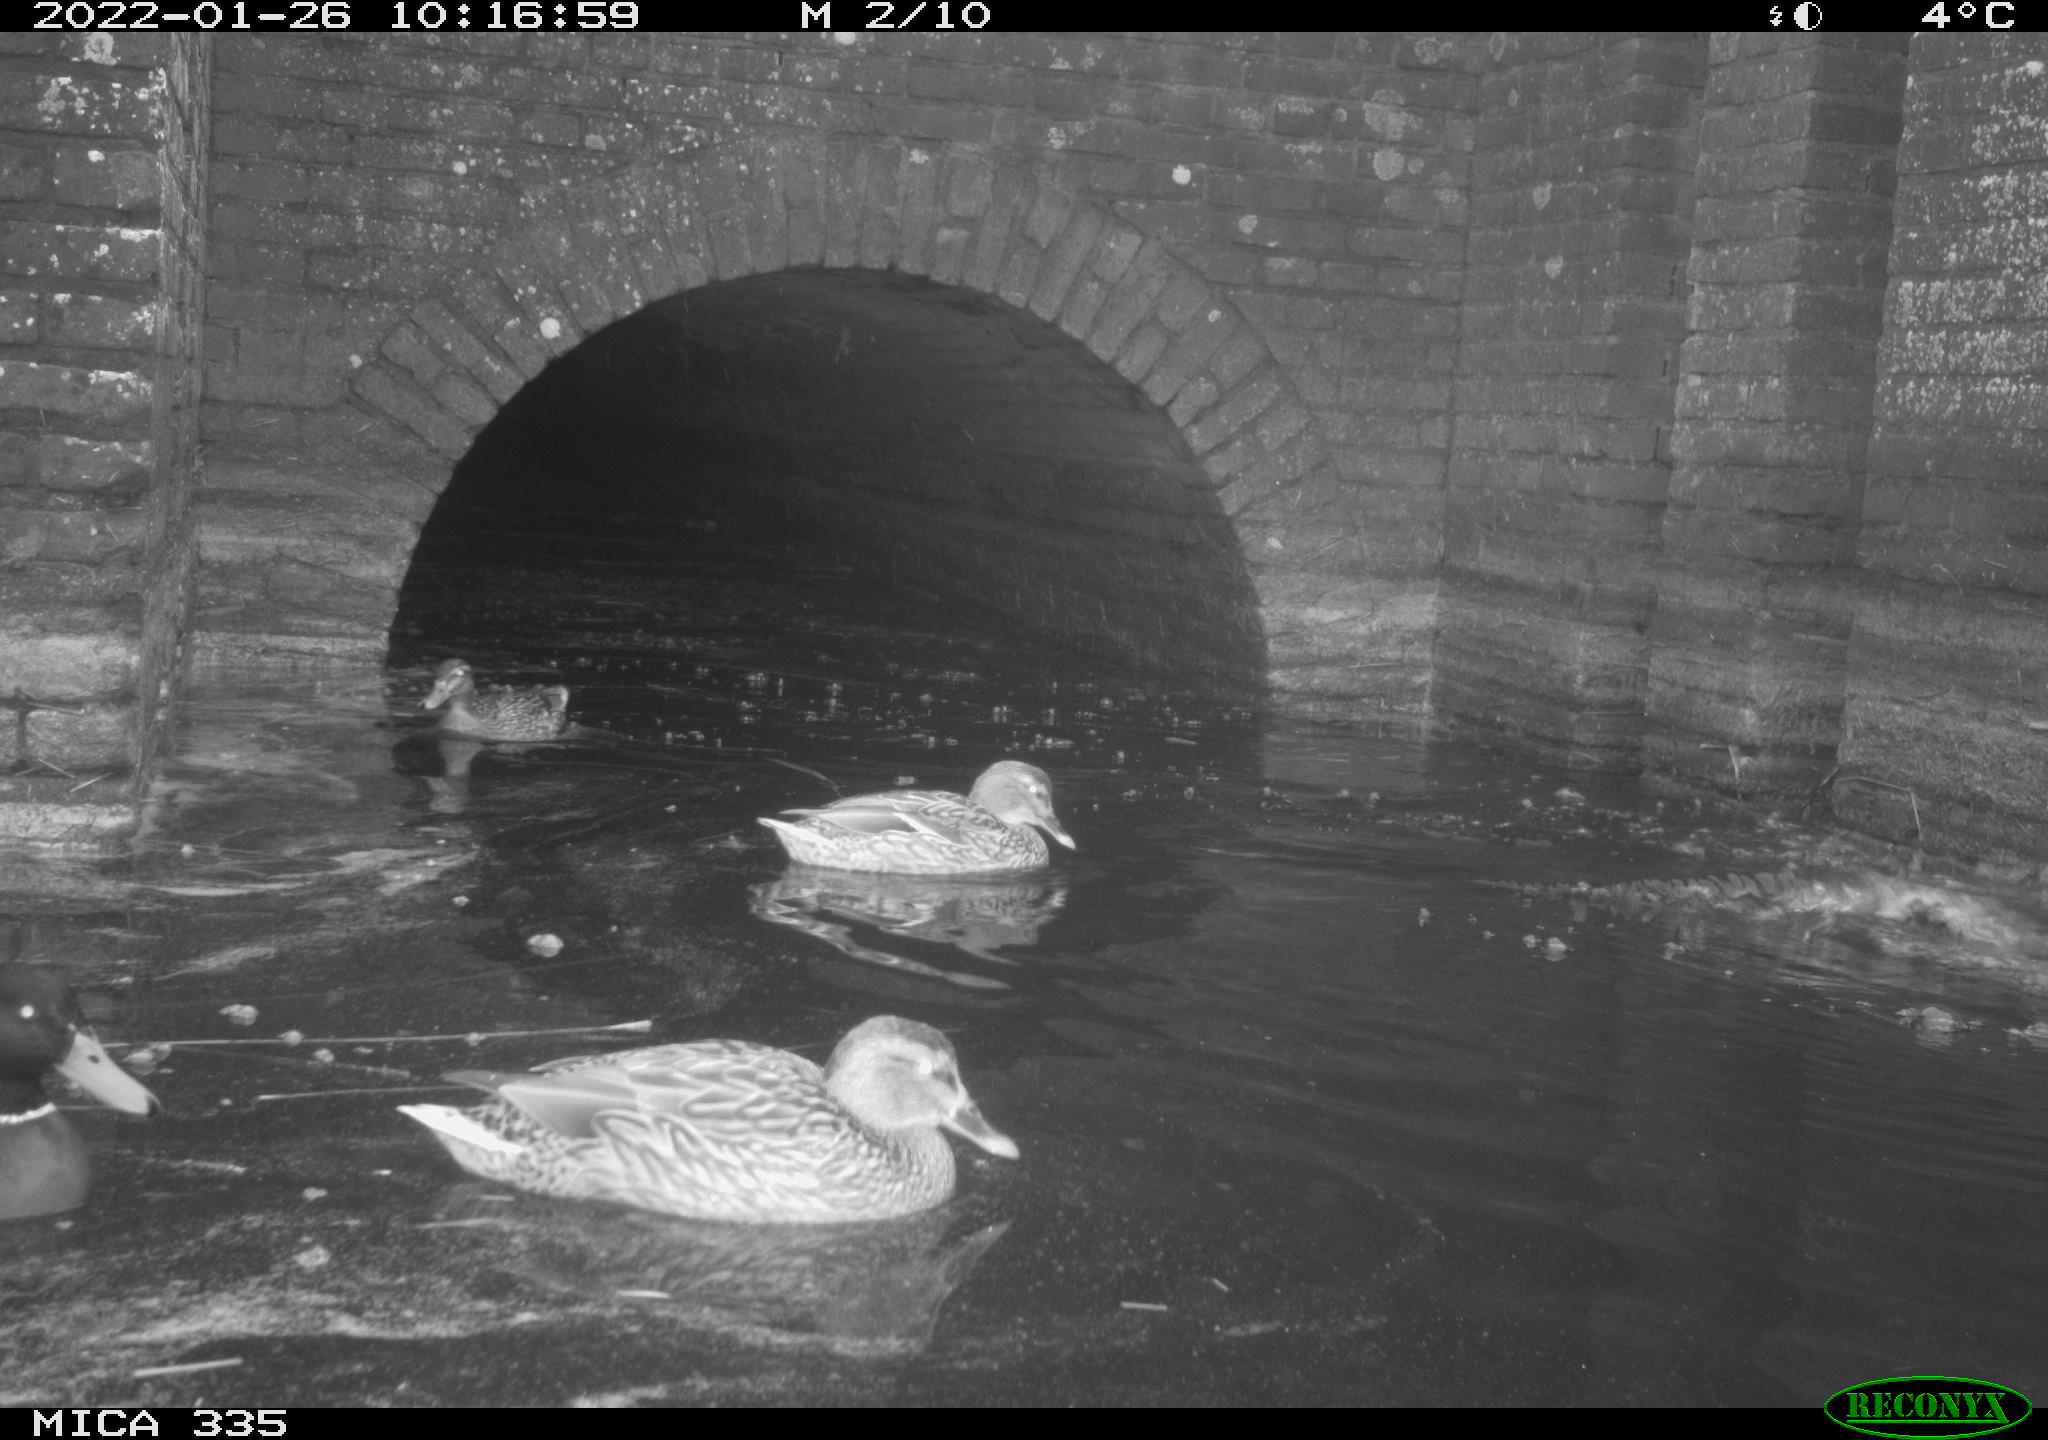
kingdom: Animalia
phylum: Chordata
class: Aves
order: Anseriformes
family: Anatidae
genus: Anas
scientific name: Anas platyrhynchos
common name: Mallard
